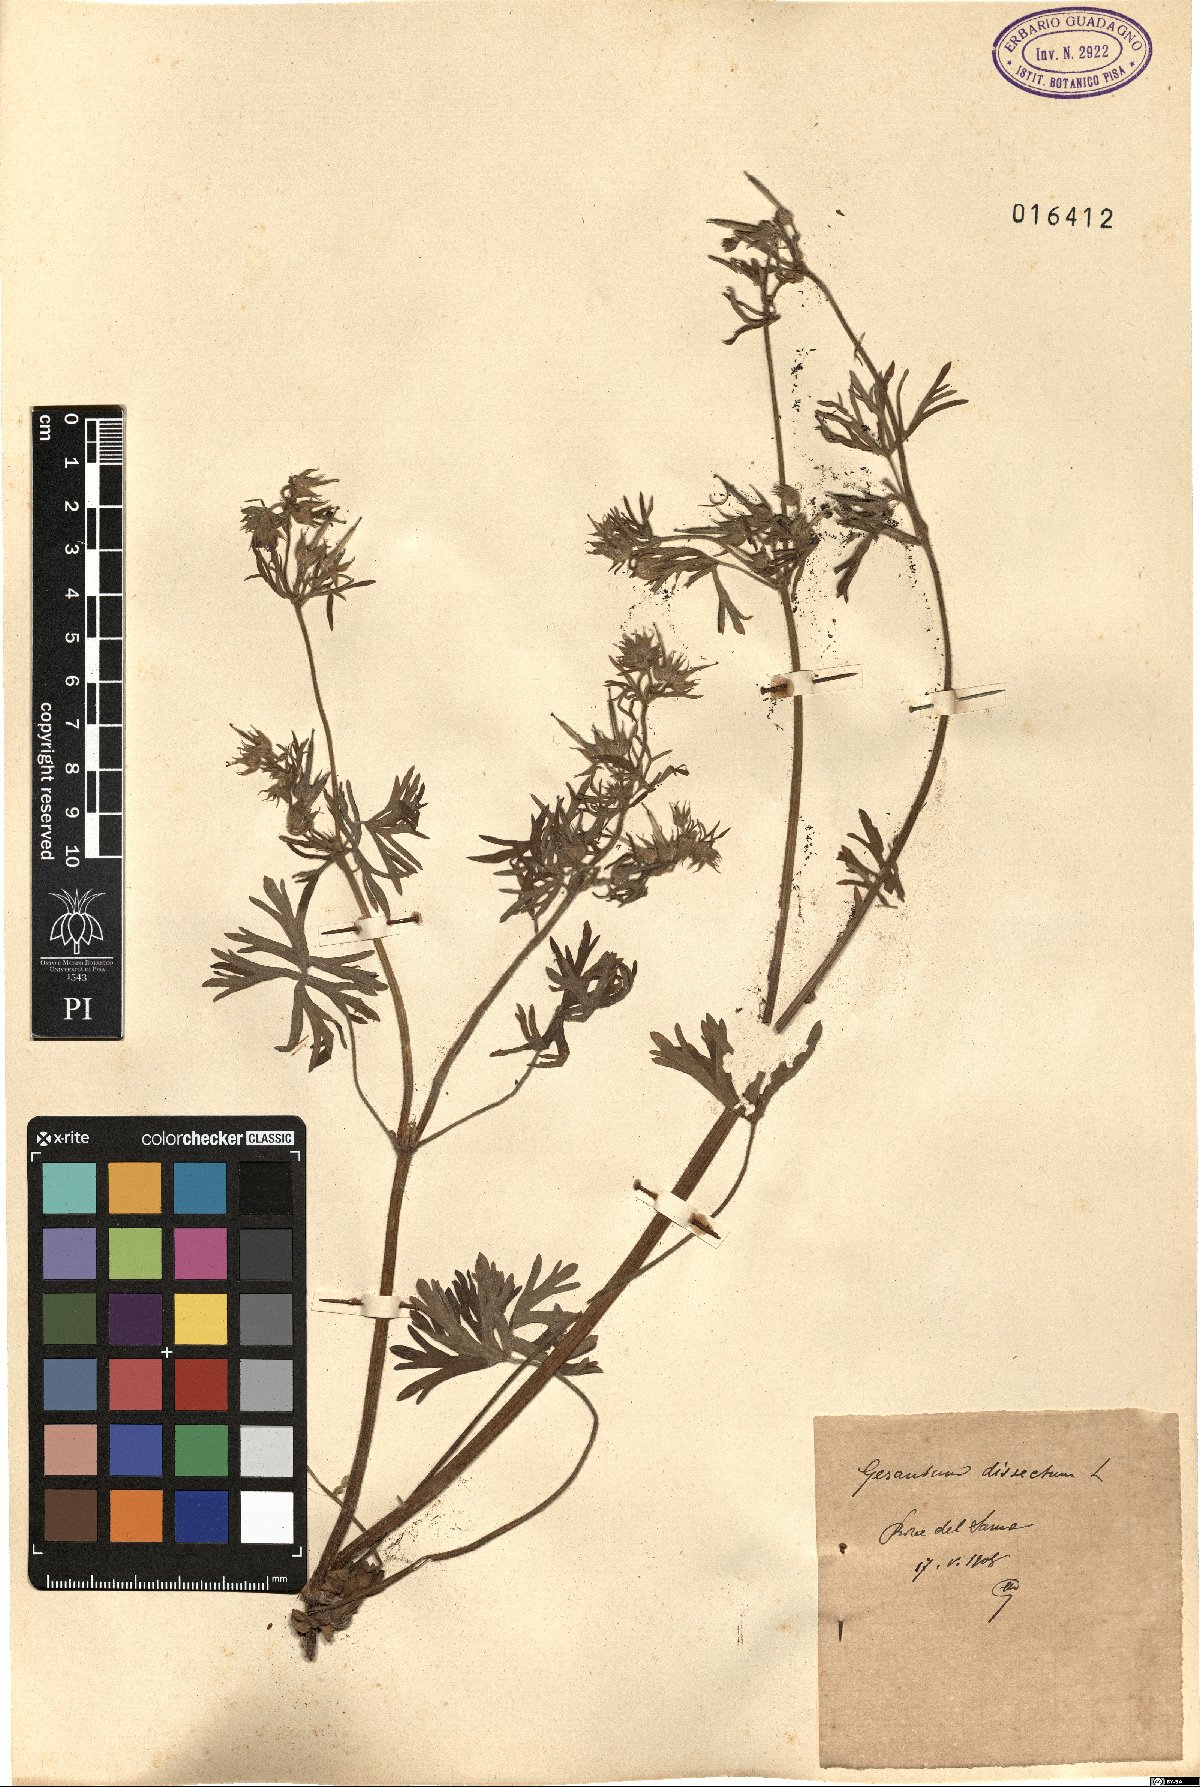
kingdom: Plantae
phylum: Tracheophyta
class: Magnoliopsida
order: Geraniales
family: Geraniaceae
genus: Geranium
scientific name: Geranium dissectum
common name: Cut-leaved crane's-bill
